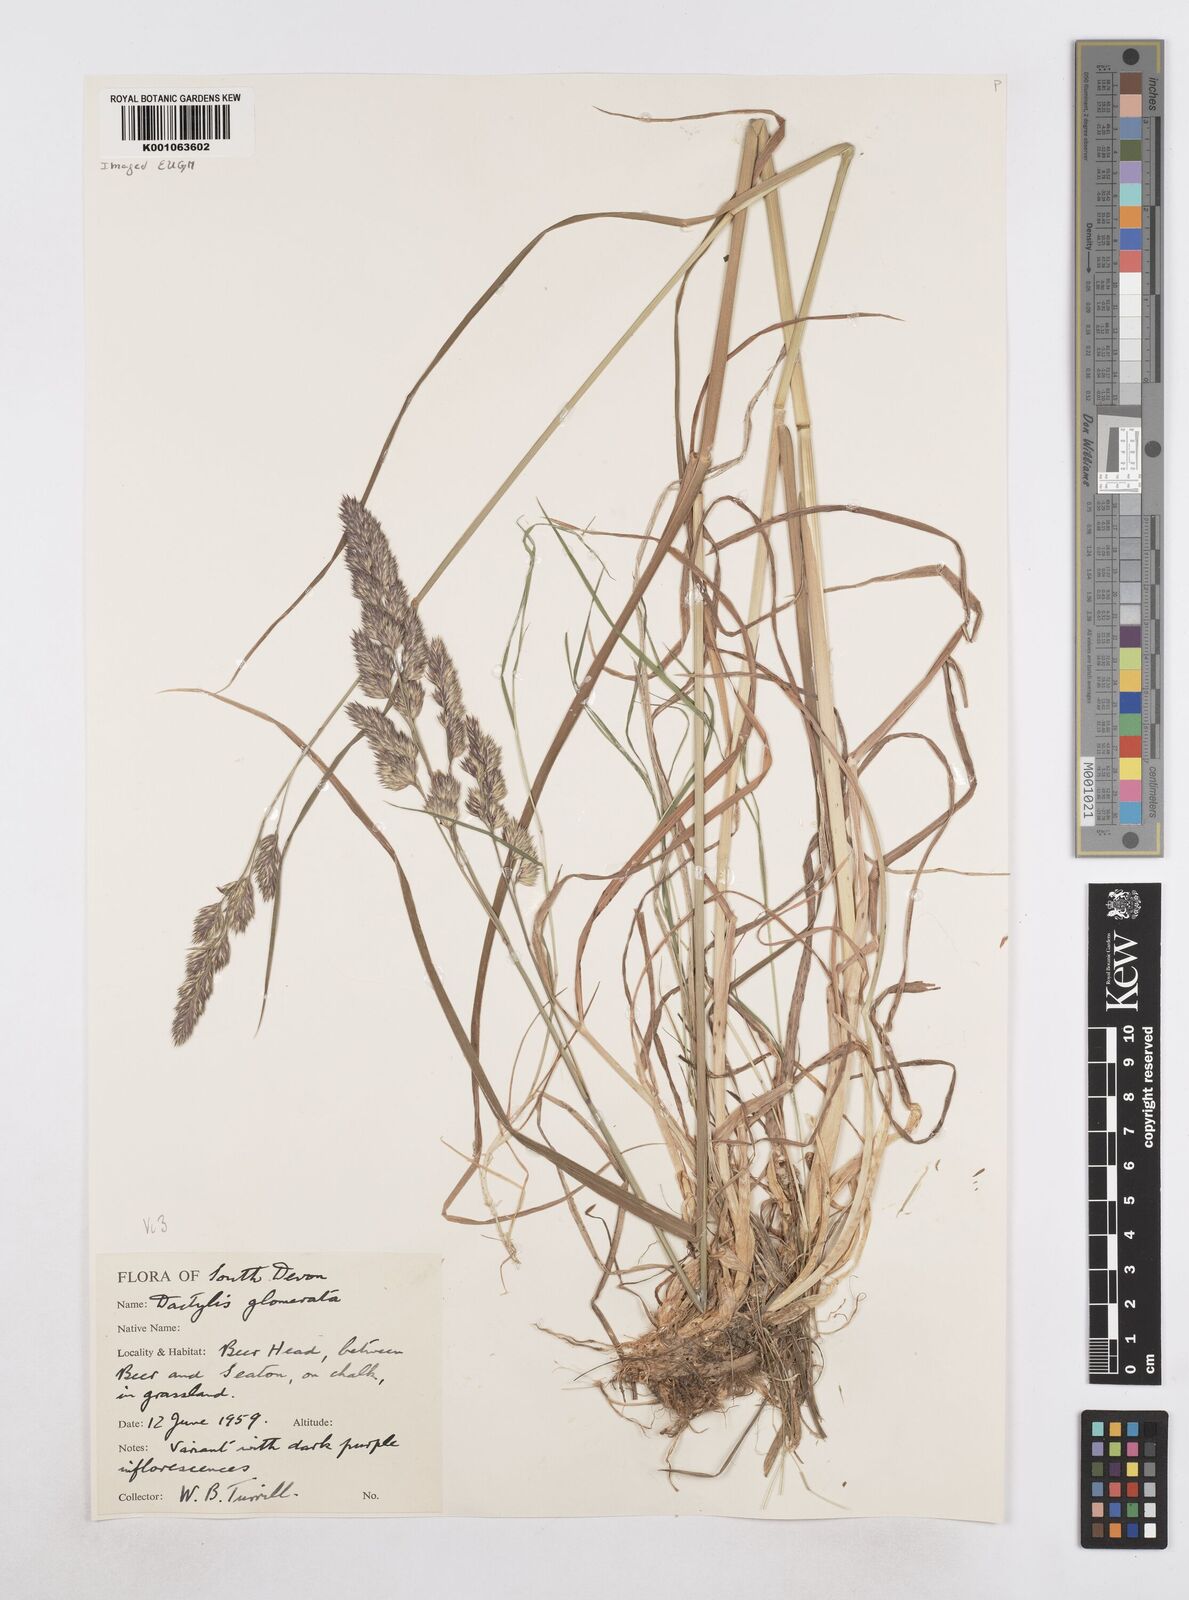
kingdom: Plantae
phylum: Tracheophyta
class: Liliopsida
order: Poales
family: Poaceae
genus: Dactylis
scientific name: Dactylis glomerata
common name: Orchardgrass
